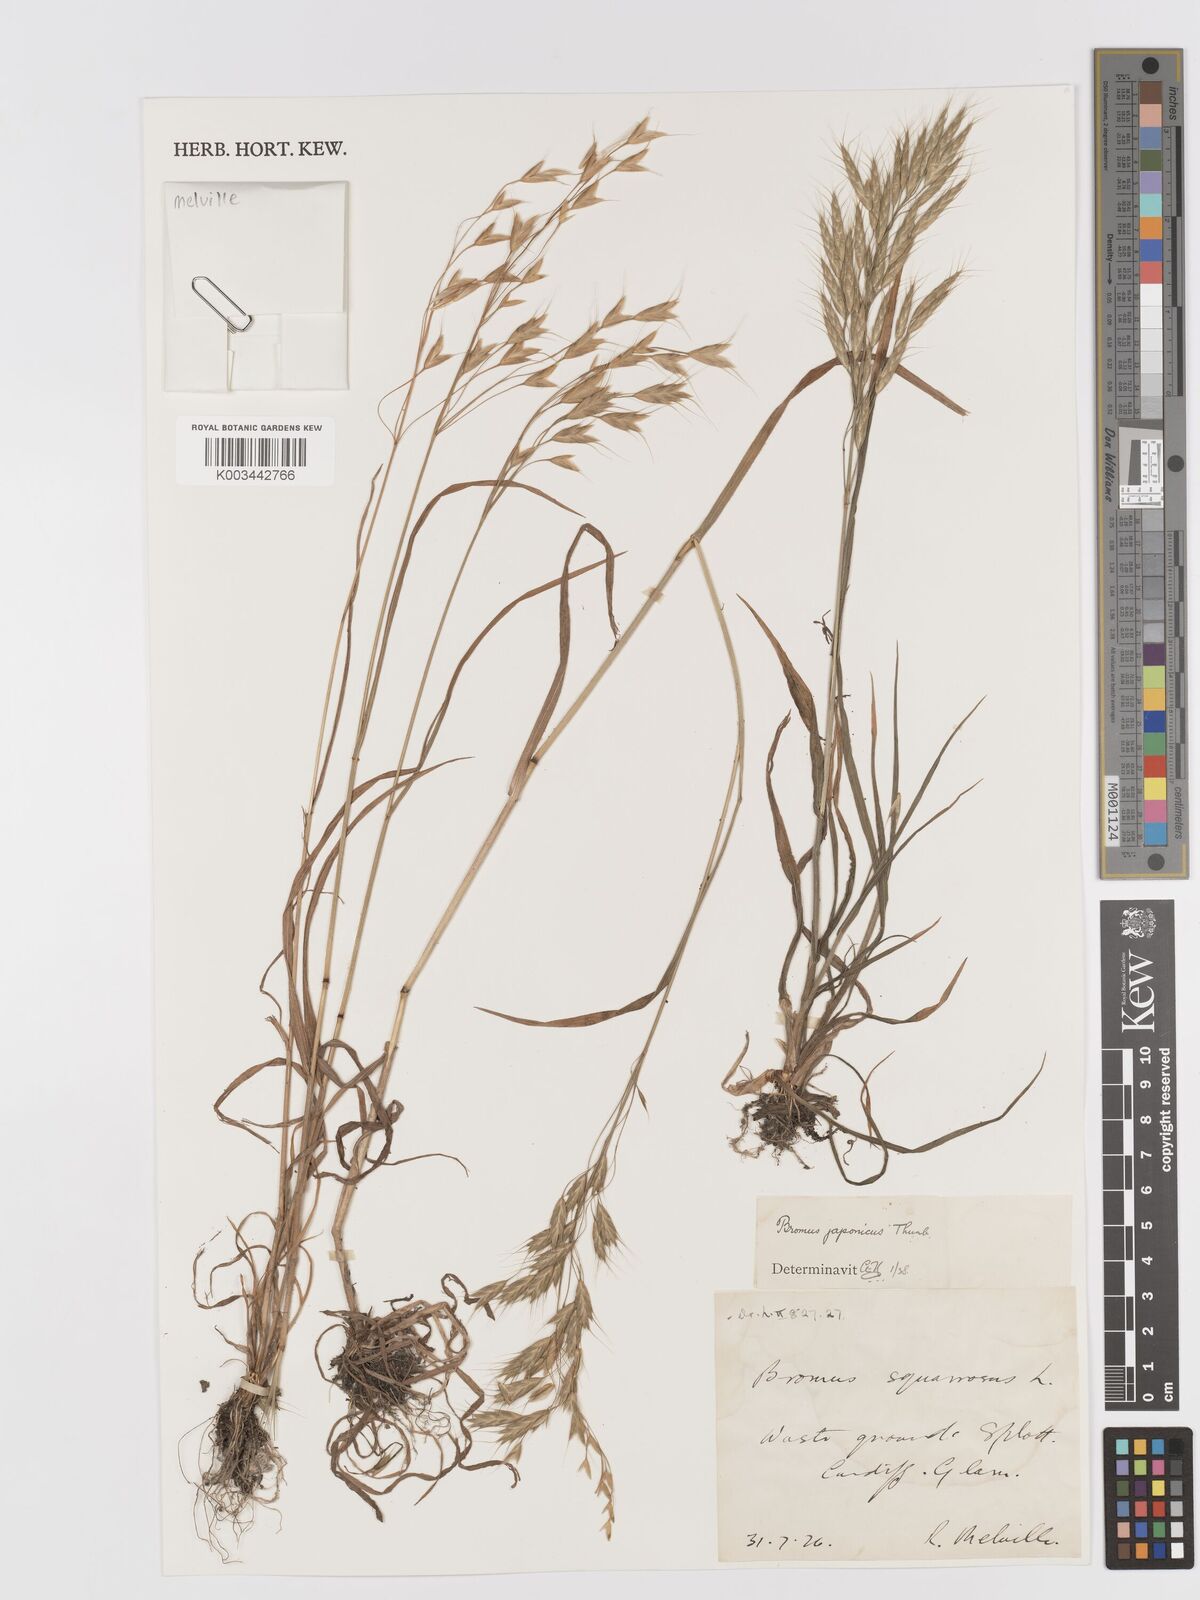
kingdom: Plantae
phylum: Tracheophyta
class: Liliopsida
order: Poales
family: Poaceae
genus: Bromus
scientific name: Bromus japonicus
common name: Japanese brome
